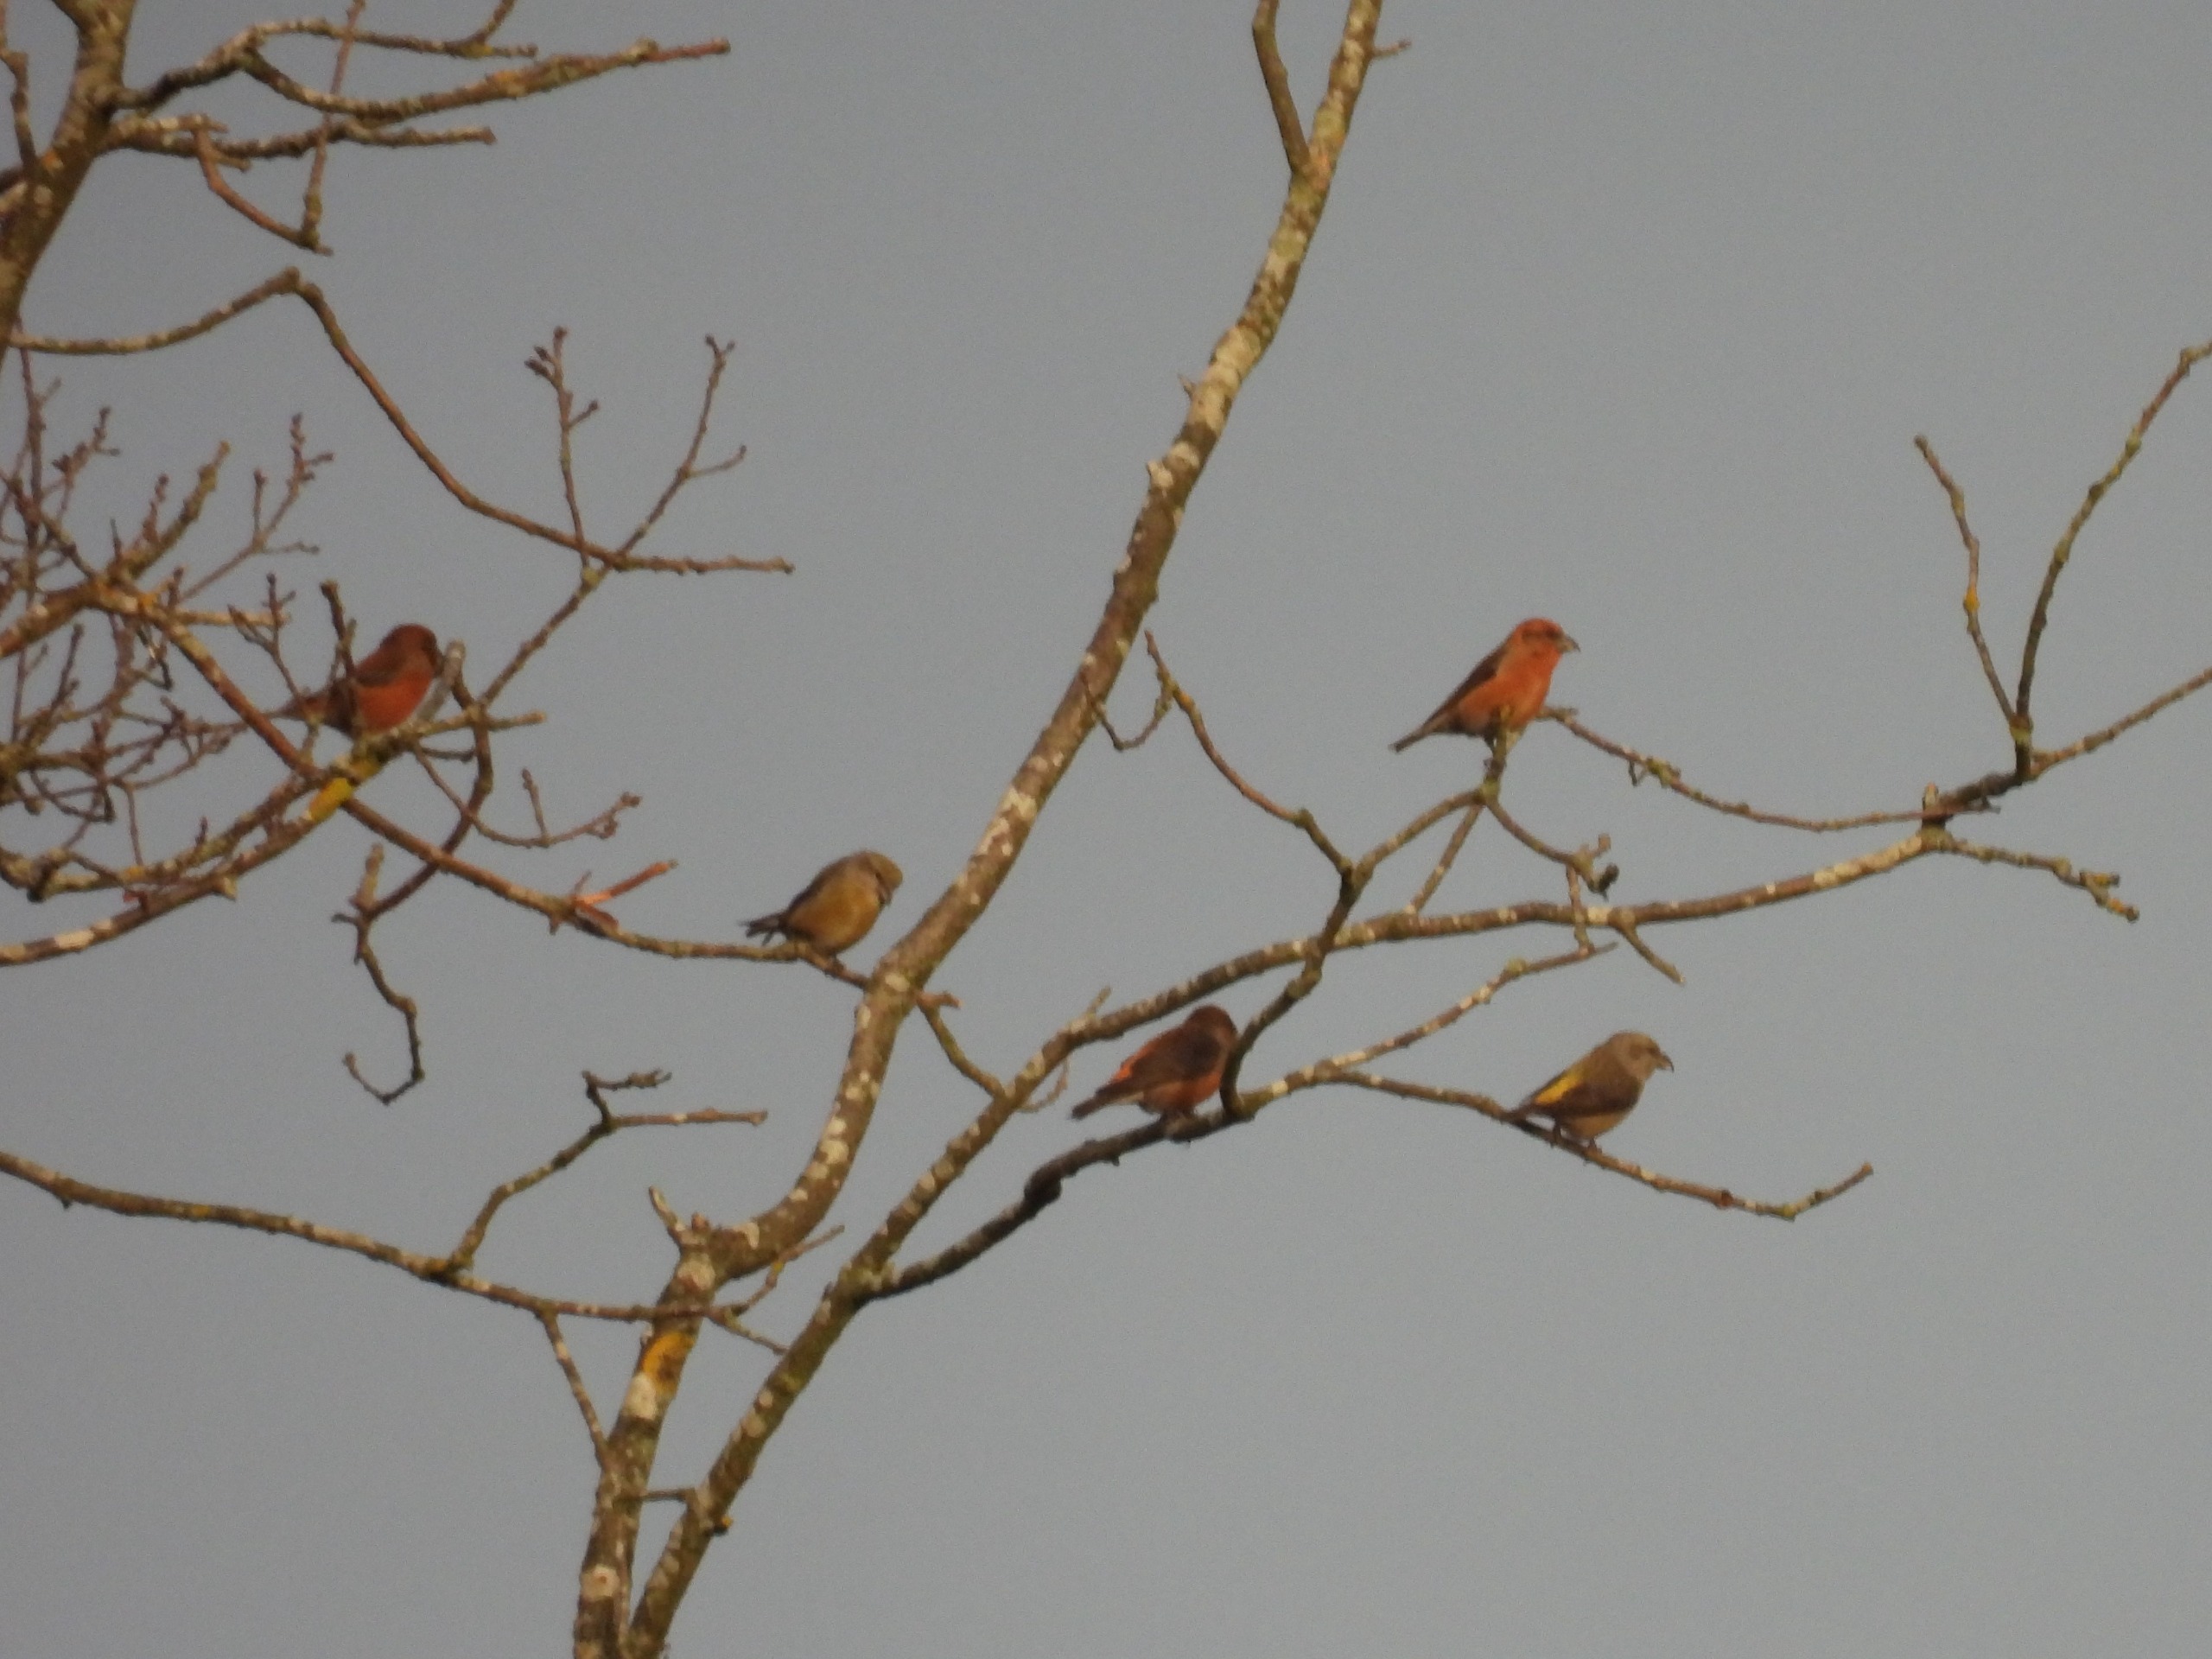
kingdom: Animalia
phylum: Chordata
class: Aves
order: Passeriformes
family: Fringillidae
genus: Loxia
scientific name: Loxia curvirostra
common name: Lille korsnæb
